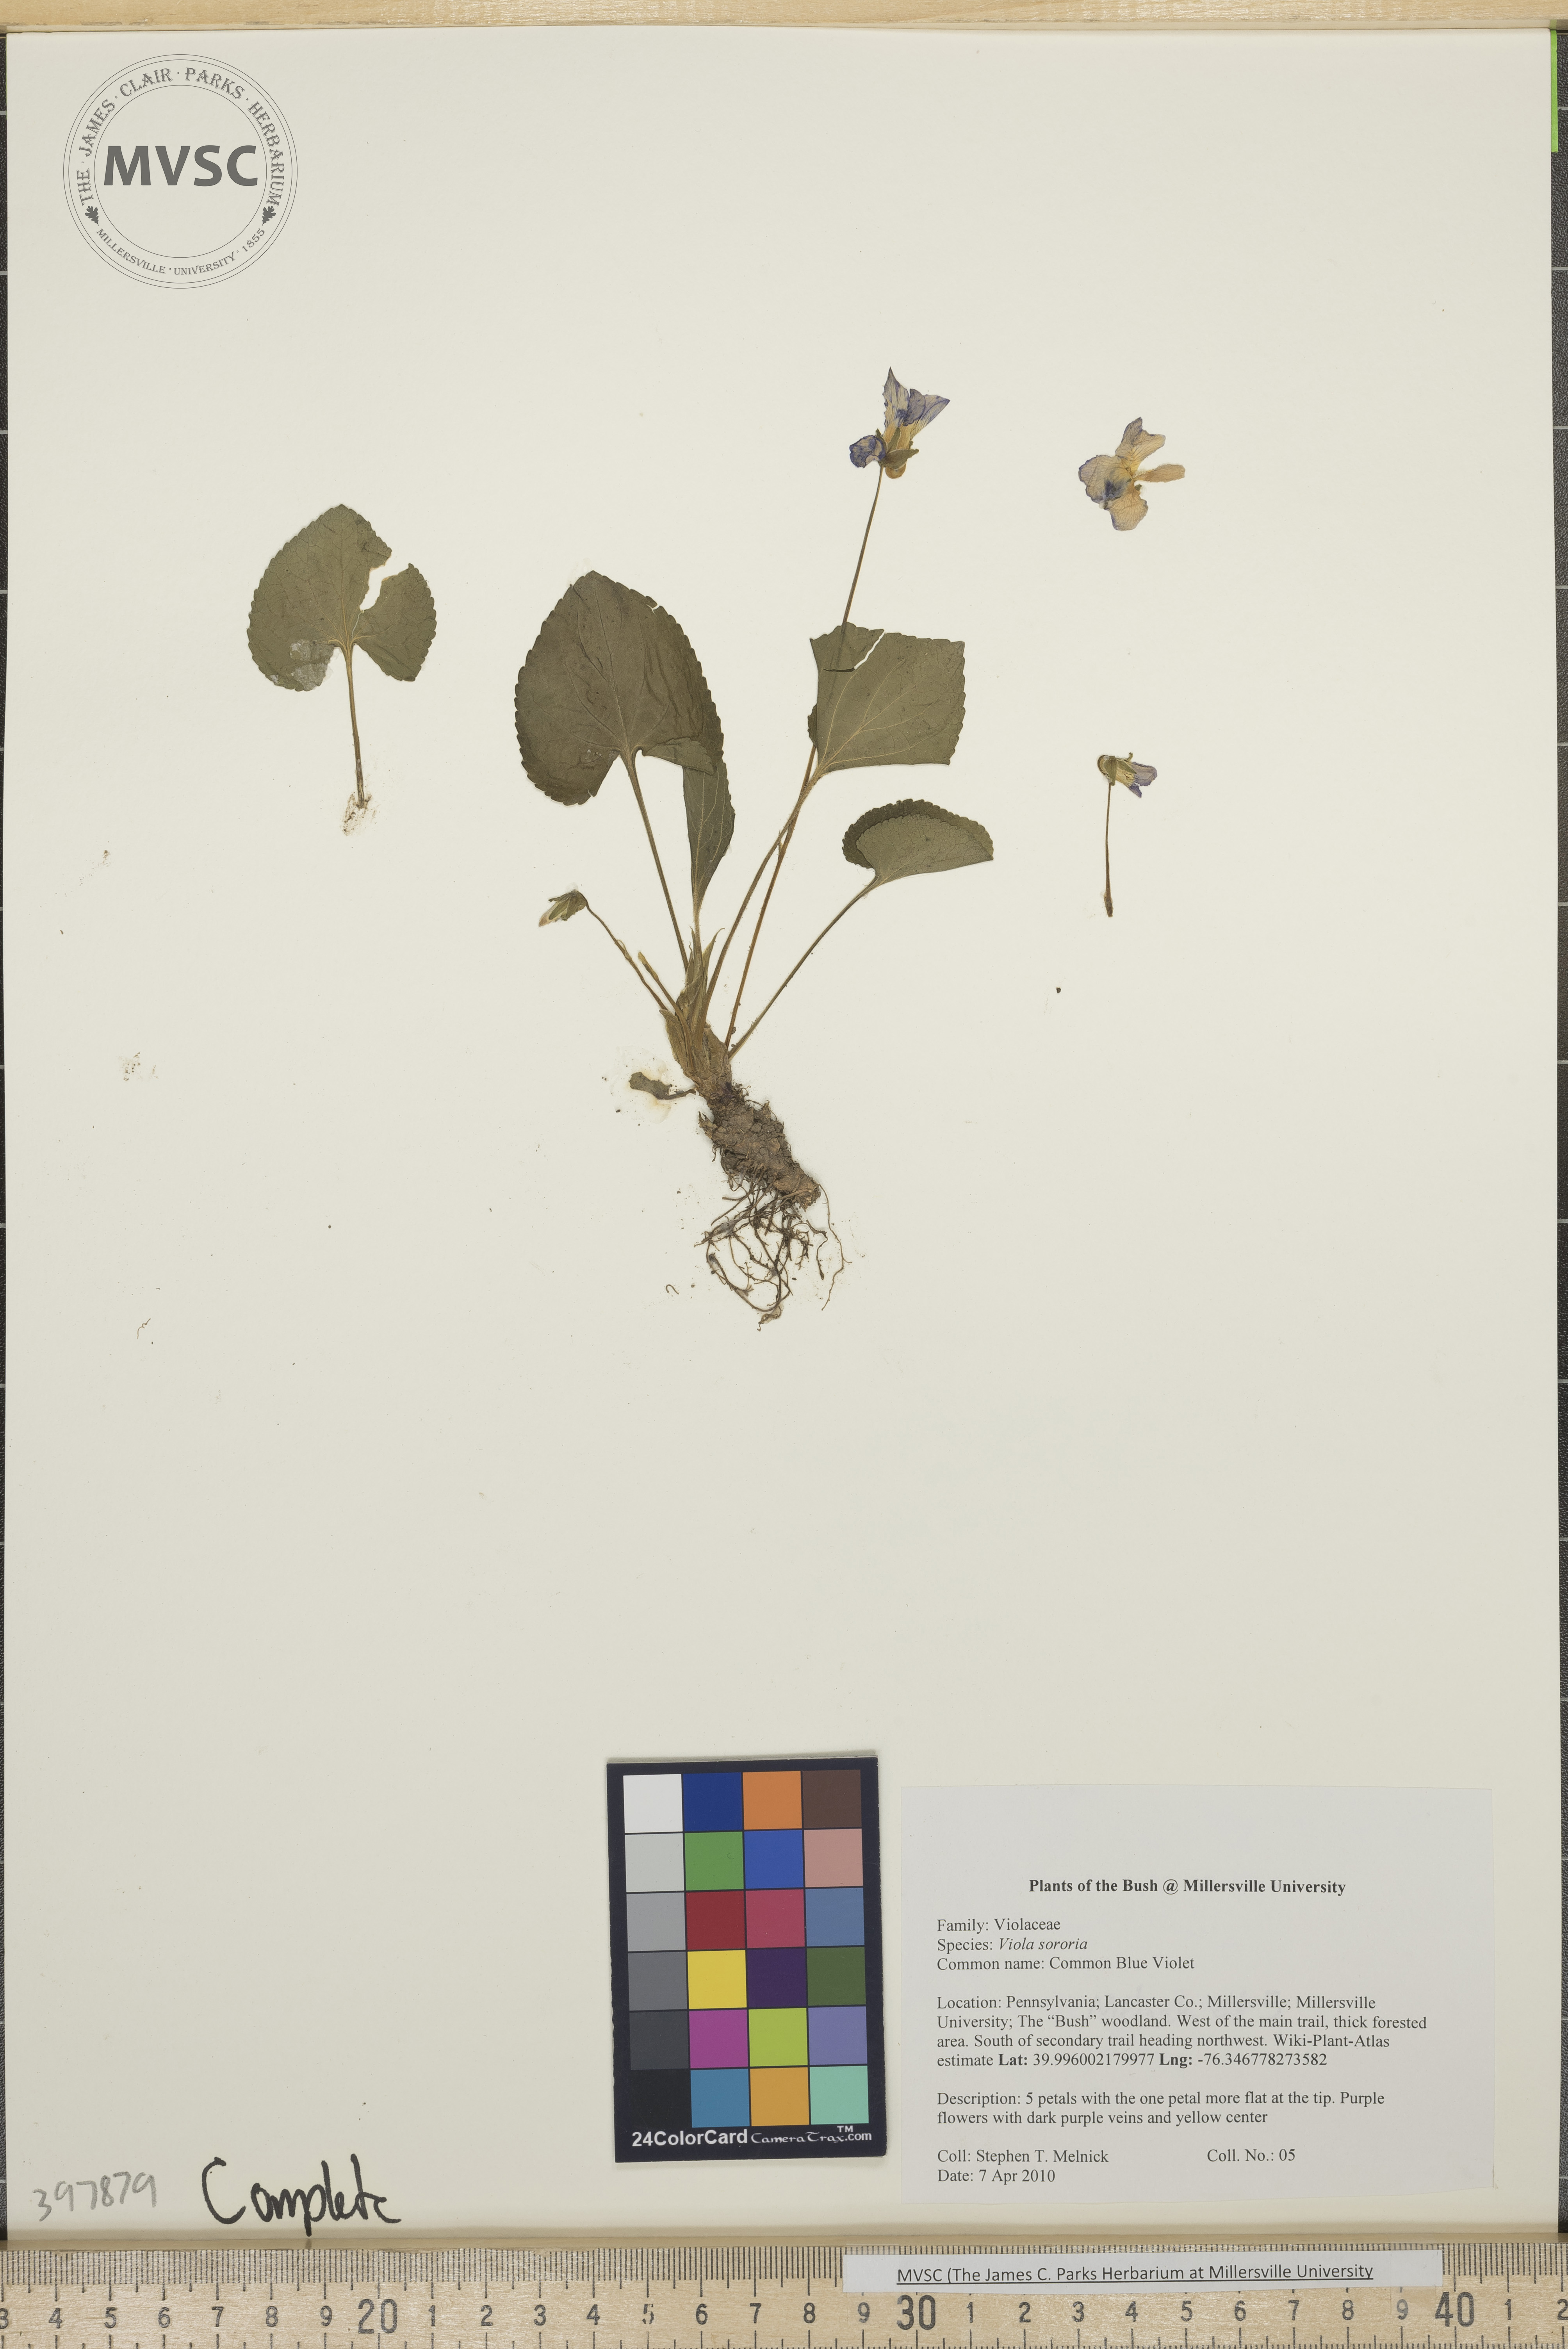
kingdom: Plantae
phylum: Tracheophyta
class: Magnoliopsida
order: Malpighiales
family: Violaceae
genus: Viola
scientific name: Viola sororia
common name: Common blue violet
